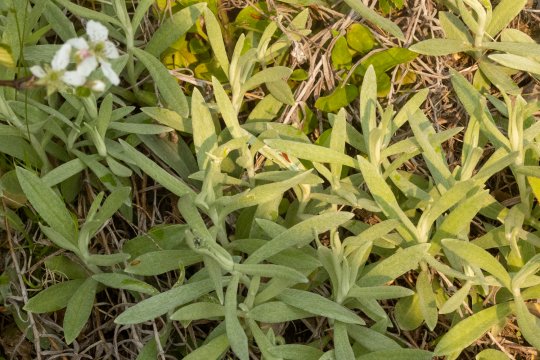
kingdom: Animalia
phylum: Arthropoda
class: Insecta
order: Lepidoptera
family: Nymphalidae
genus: Nymphalis
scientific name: Nymphalis antiopa
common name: Mourning Cloak
